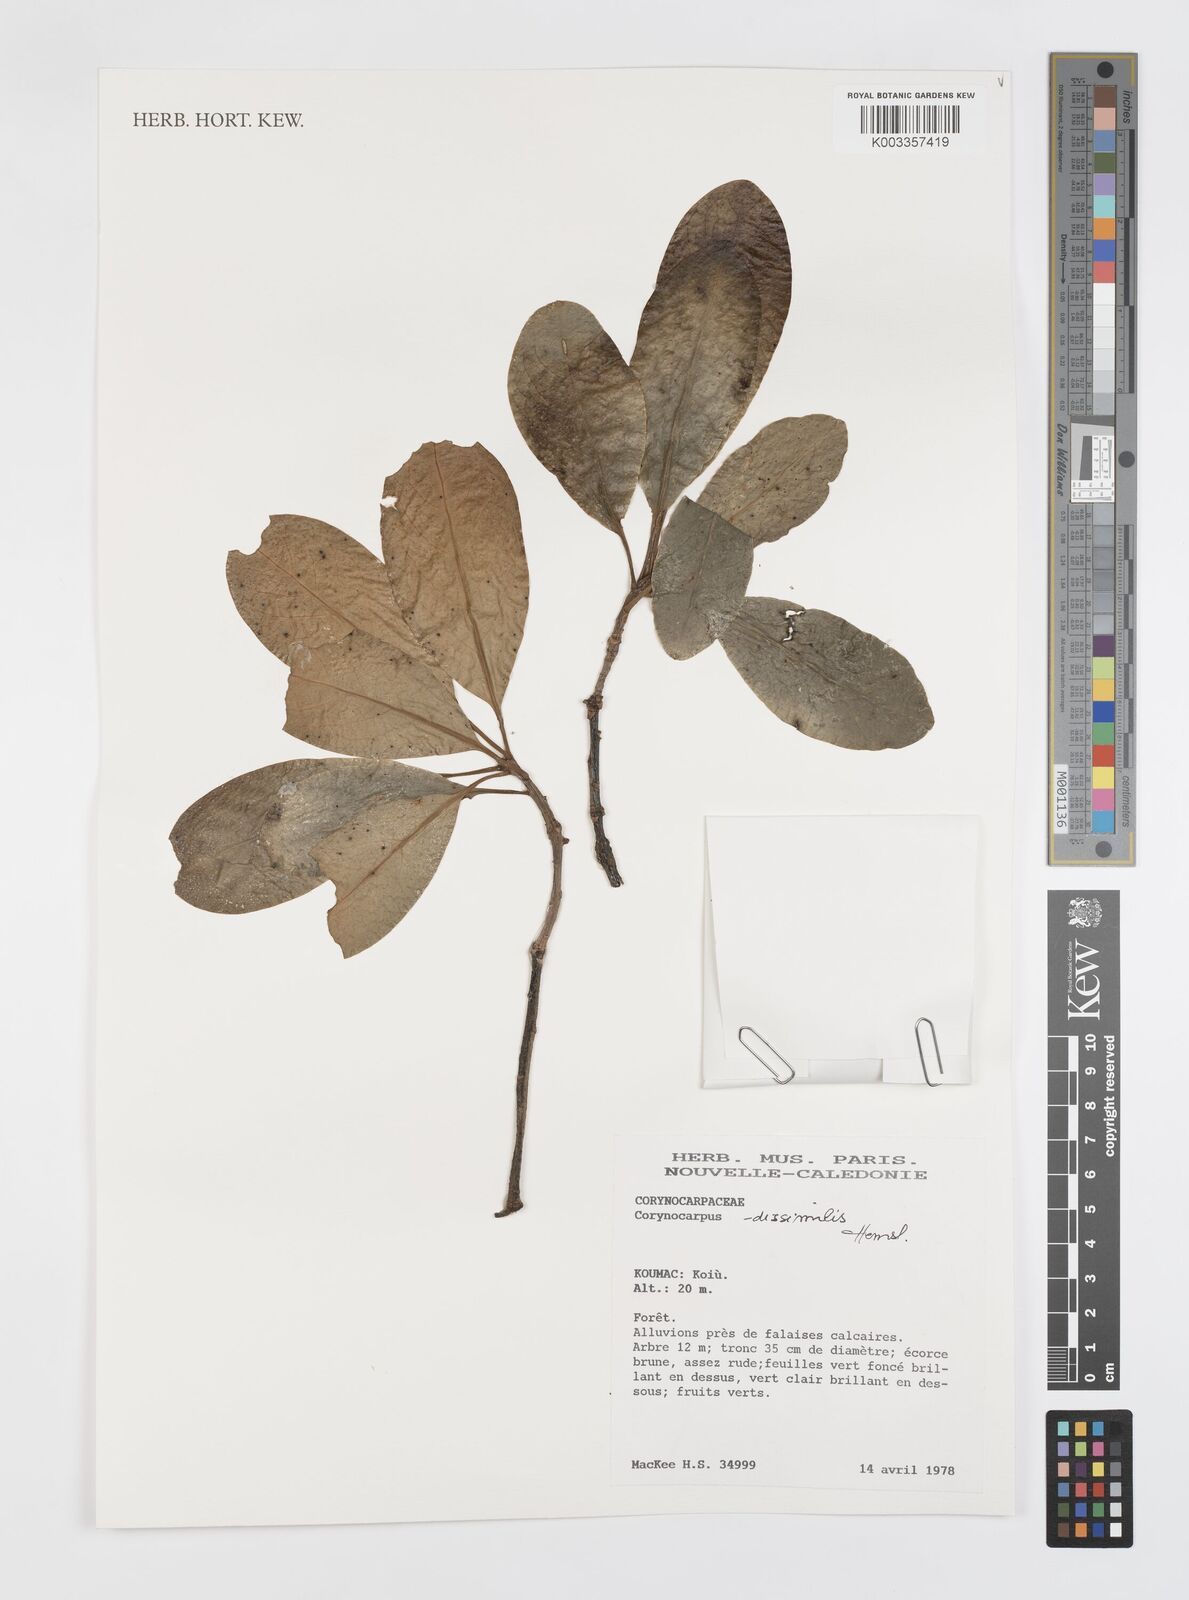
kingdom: Plantae
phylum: Tracheophyta
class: Magnoliopsida
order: Cucurbitales
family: Corynocarpaceae
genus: Corynocarpus
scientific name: Corynocarpus dissimilis
